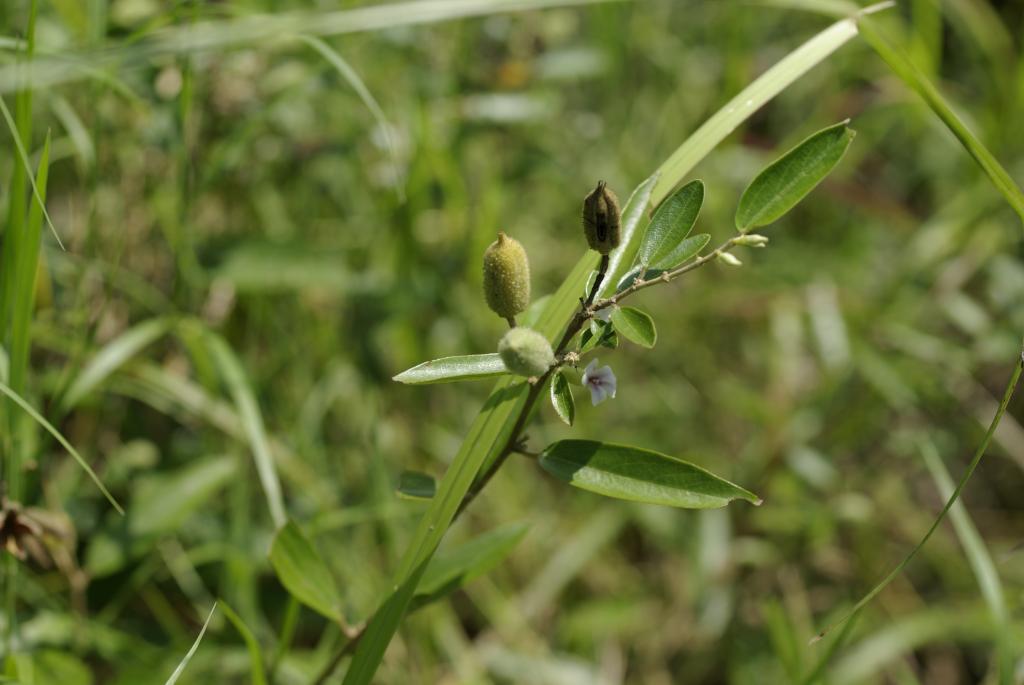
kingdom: Plantae
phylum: Tracheophyta
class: Magnoliopsida
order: Malvales
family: Malvaceae
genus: Helicteres
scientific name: Helicteres augustifolia
